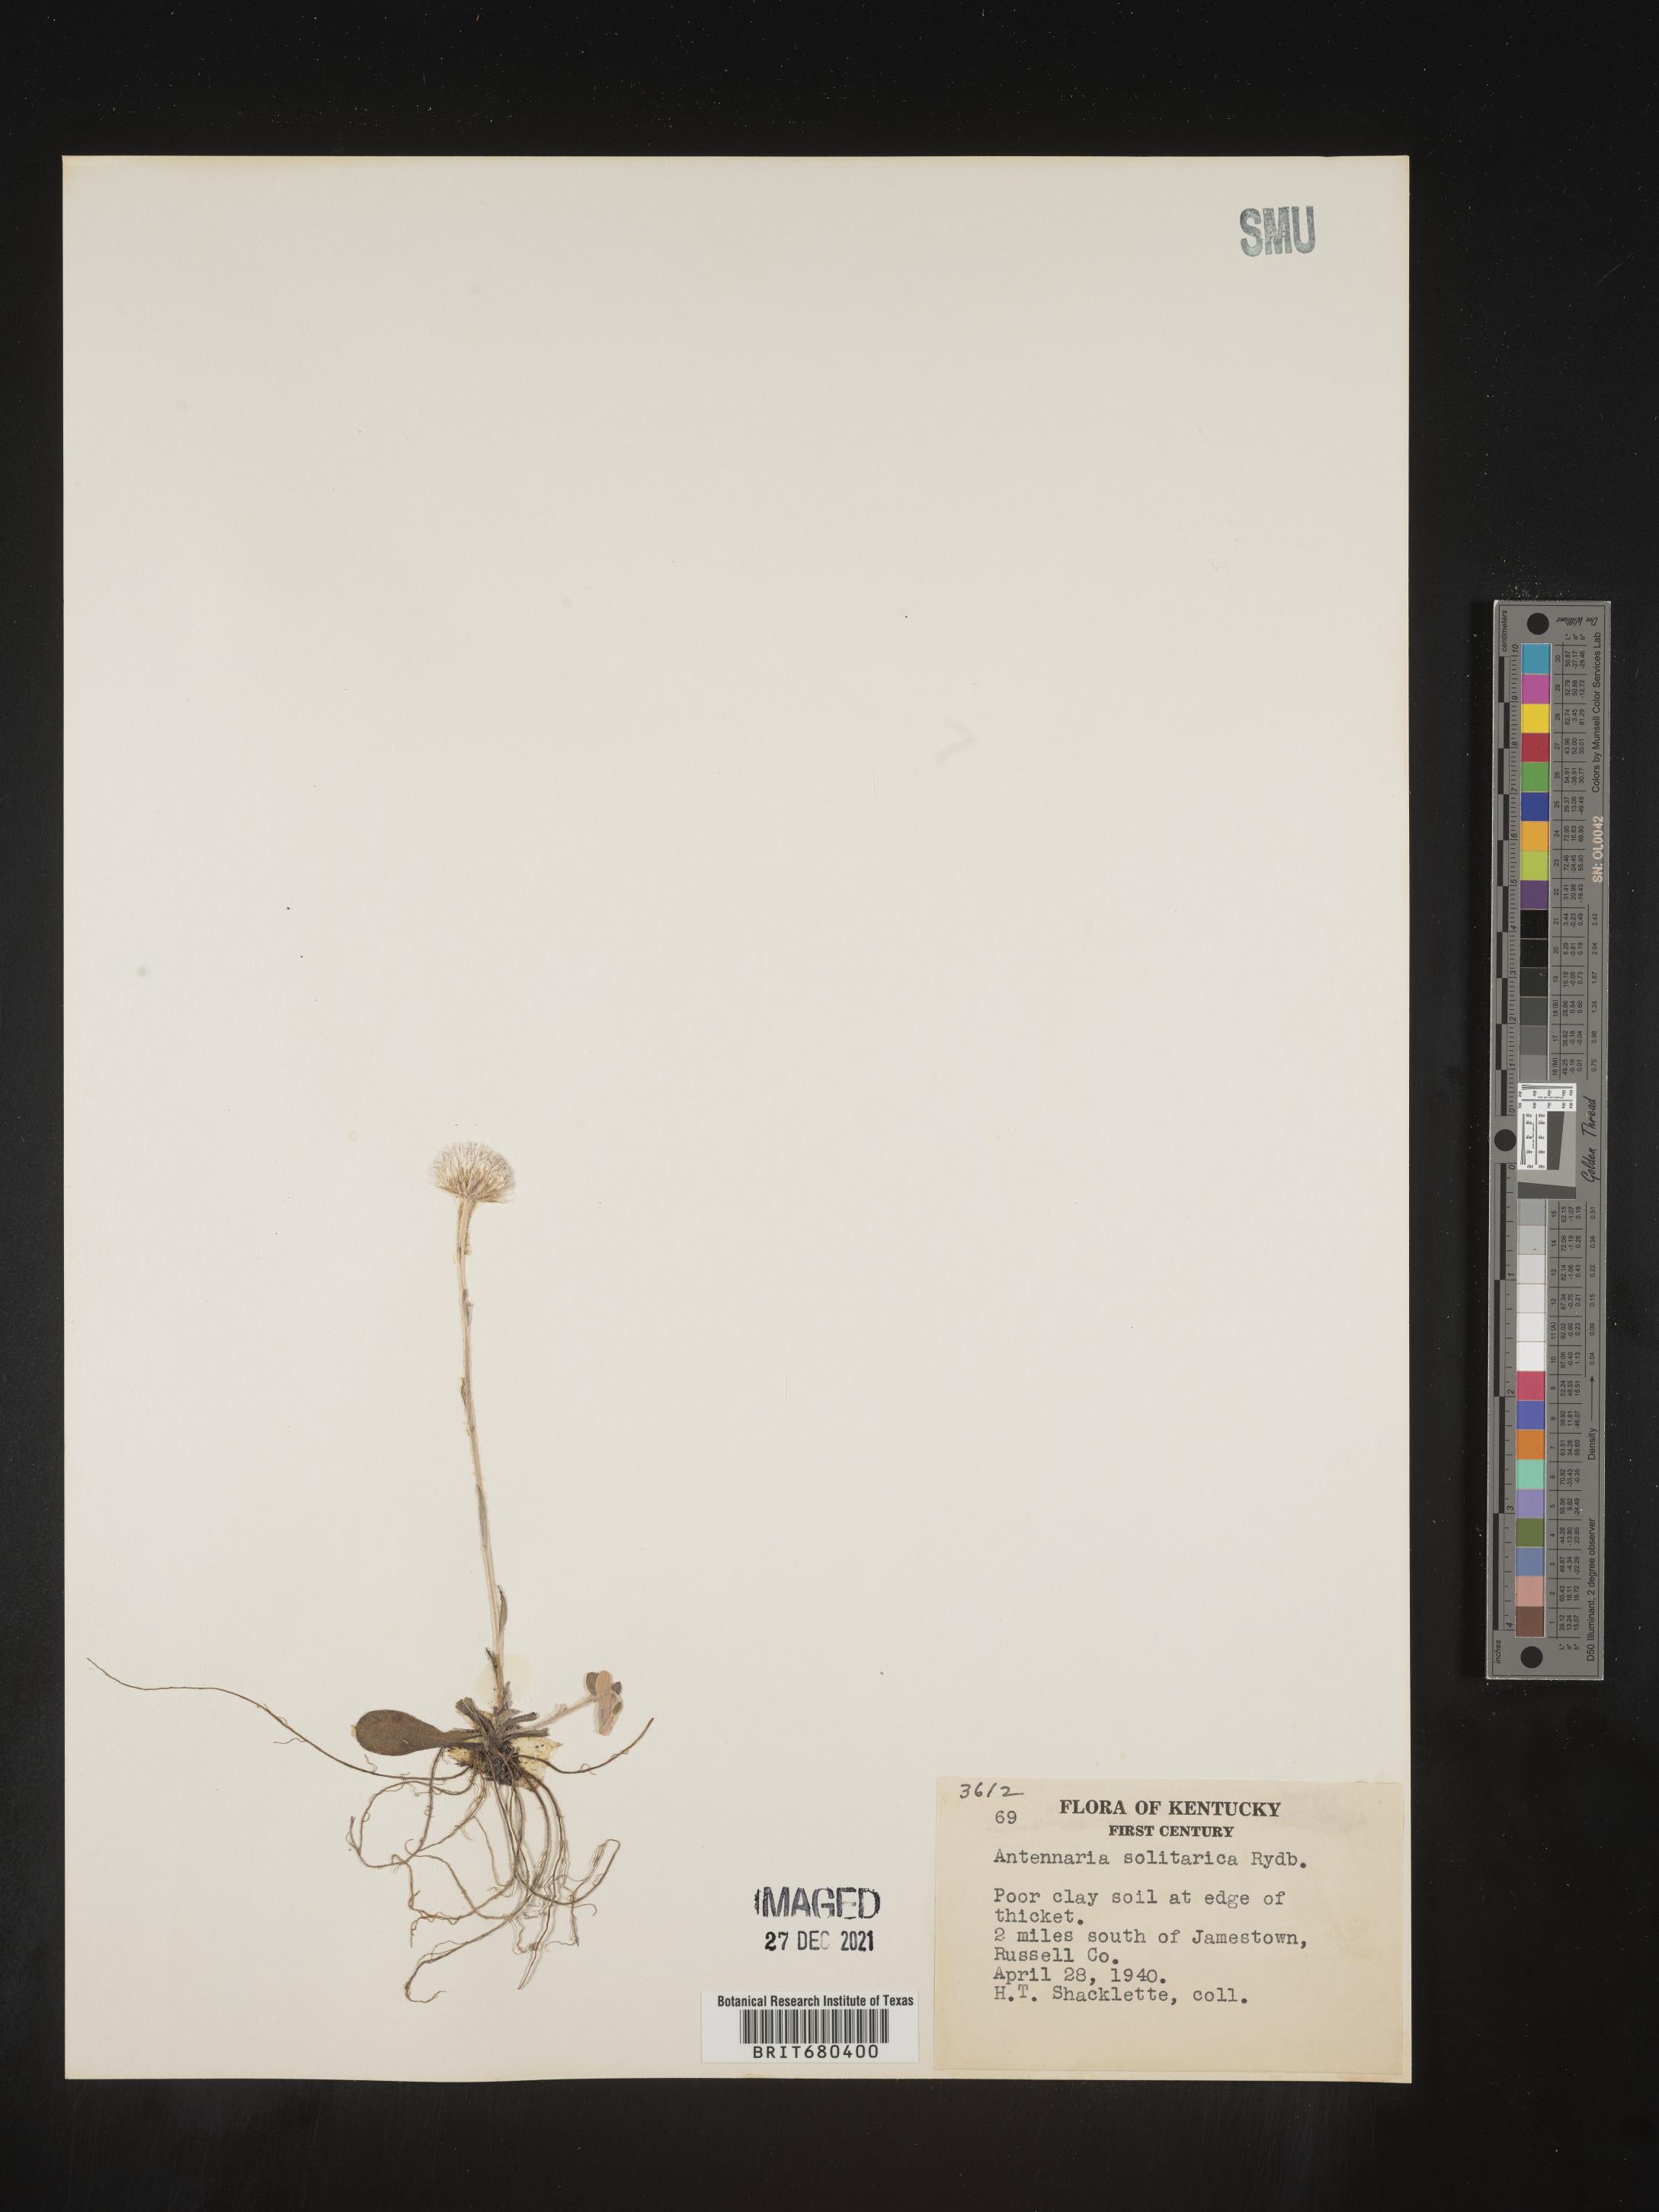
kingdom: Plantae
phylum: Tracheophyta
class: Magnoliopsida
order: Asterales
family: Asteraceae
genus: Antennaria
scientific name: Antennaria solitaria
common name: Single-head pussytoes
